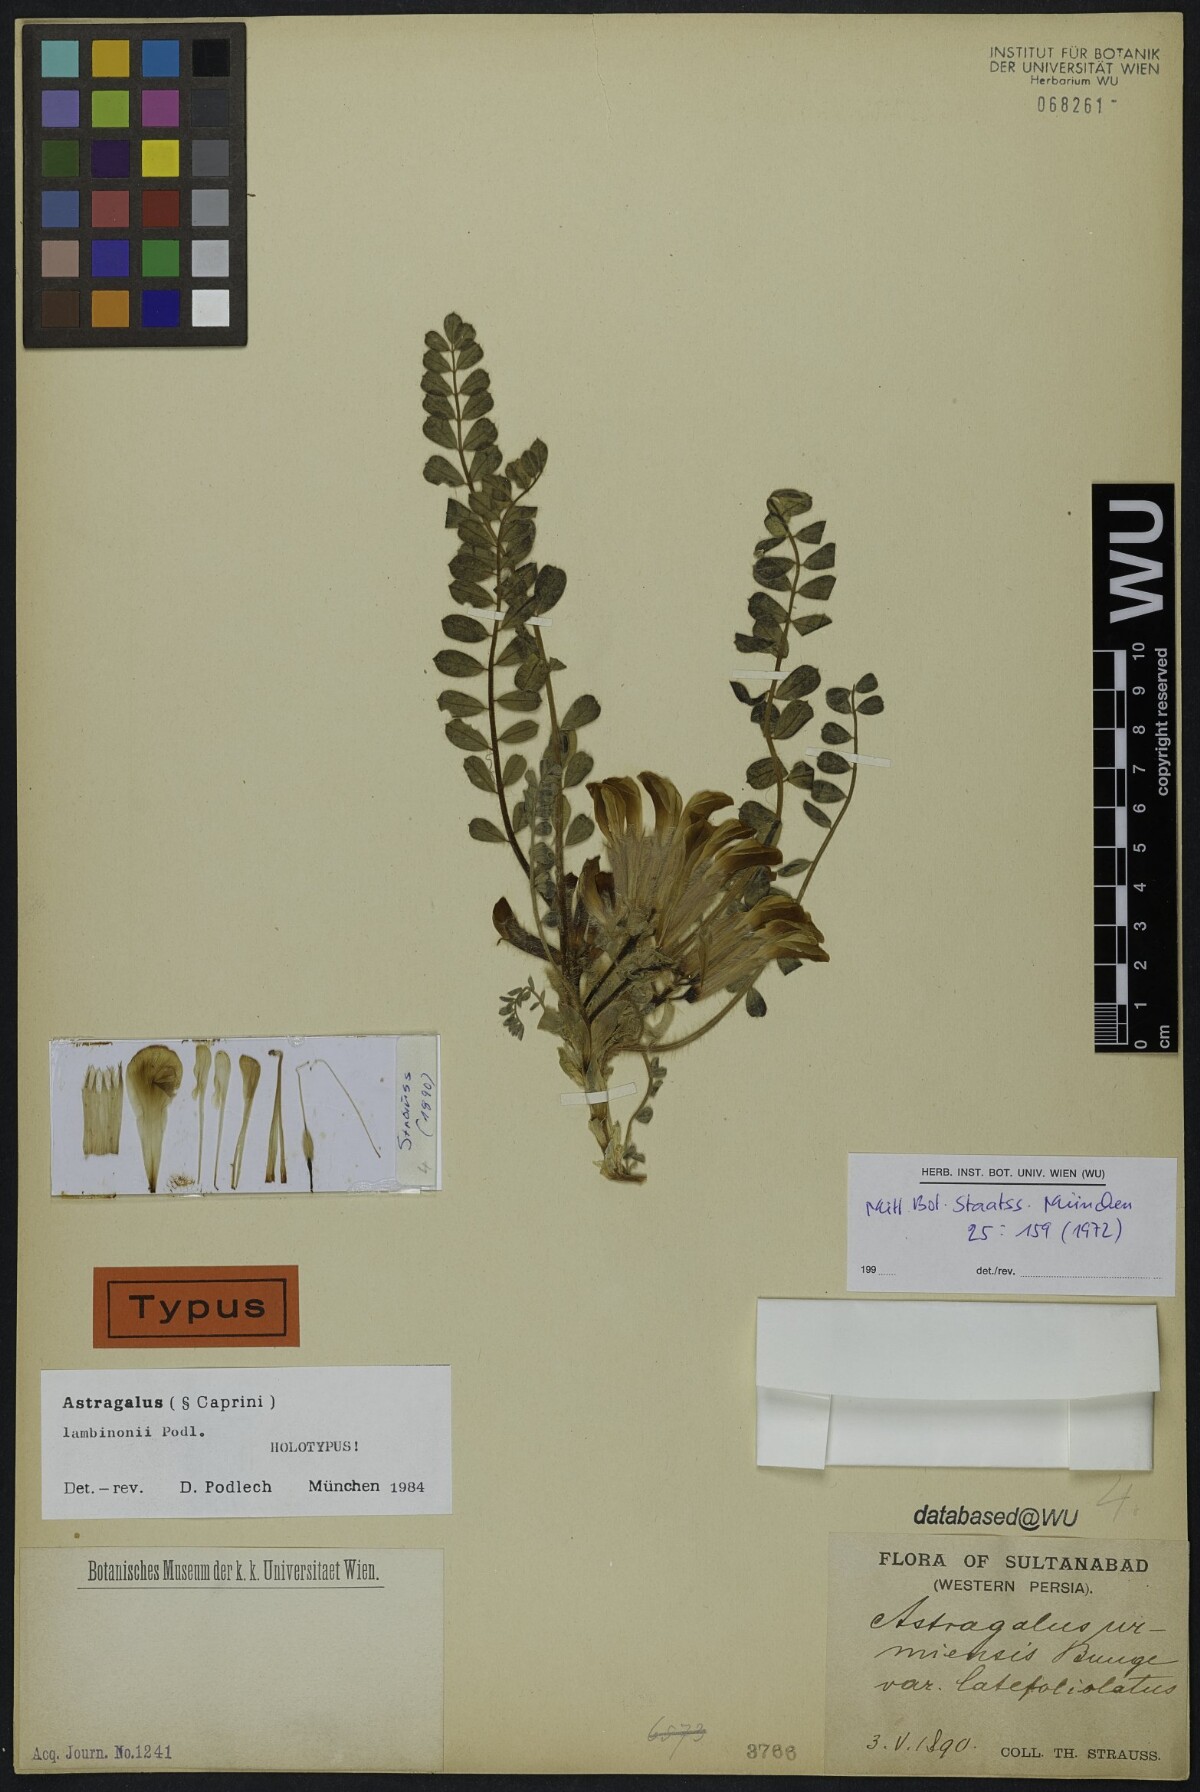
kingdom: Plantae
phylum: Tracheophyta
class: Magnoliopsida
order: Fabales
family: Fabaceae
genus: Astragalus
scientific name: Astragalus lambinonii
